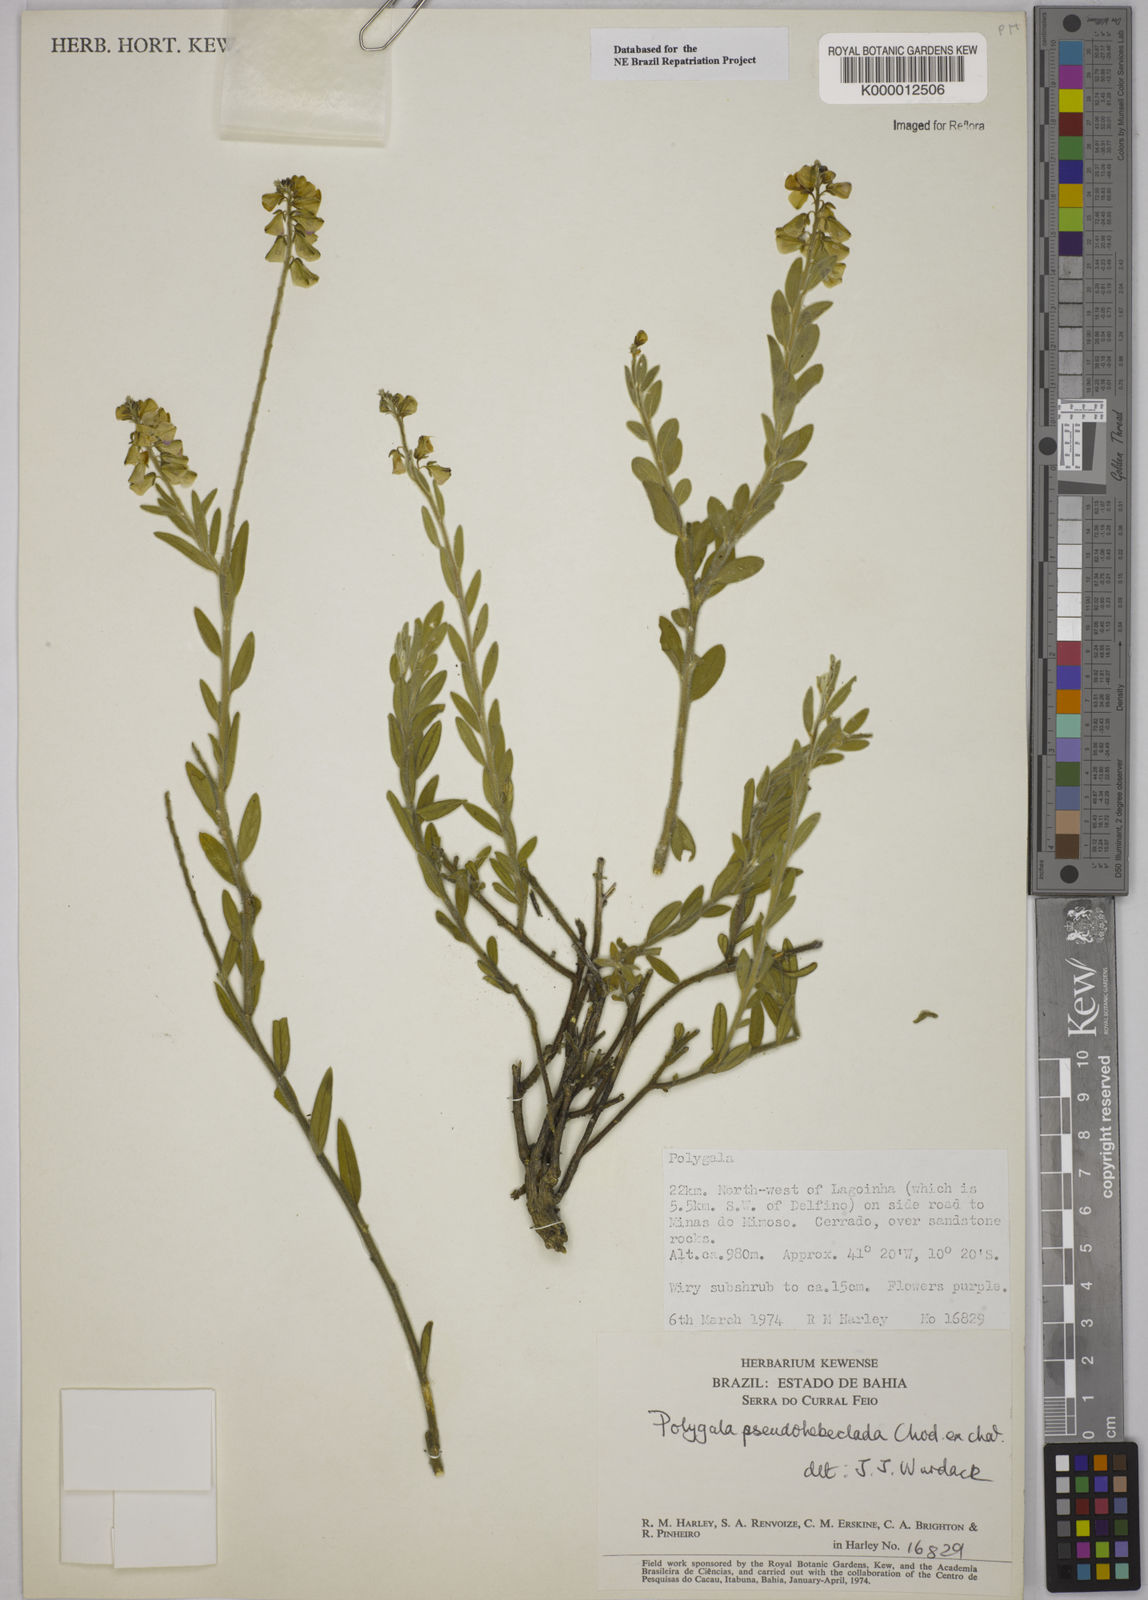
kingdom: Plantae
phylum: Tracheophyta
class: Magnoliopsida
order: Fabales
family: Polygalaceae
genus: Asemeia
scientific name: Asemeia pseudohebeclada
